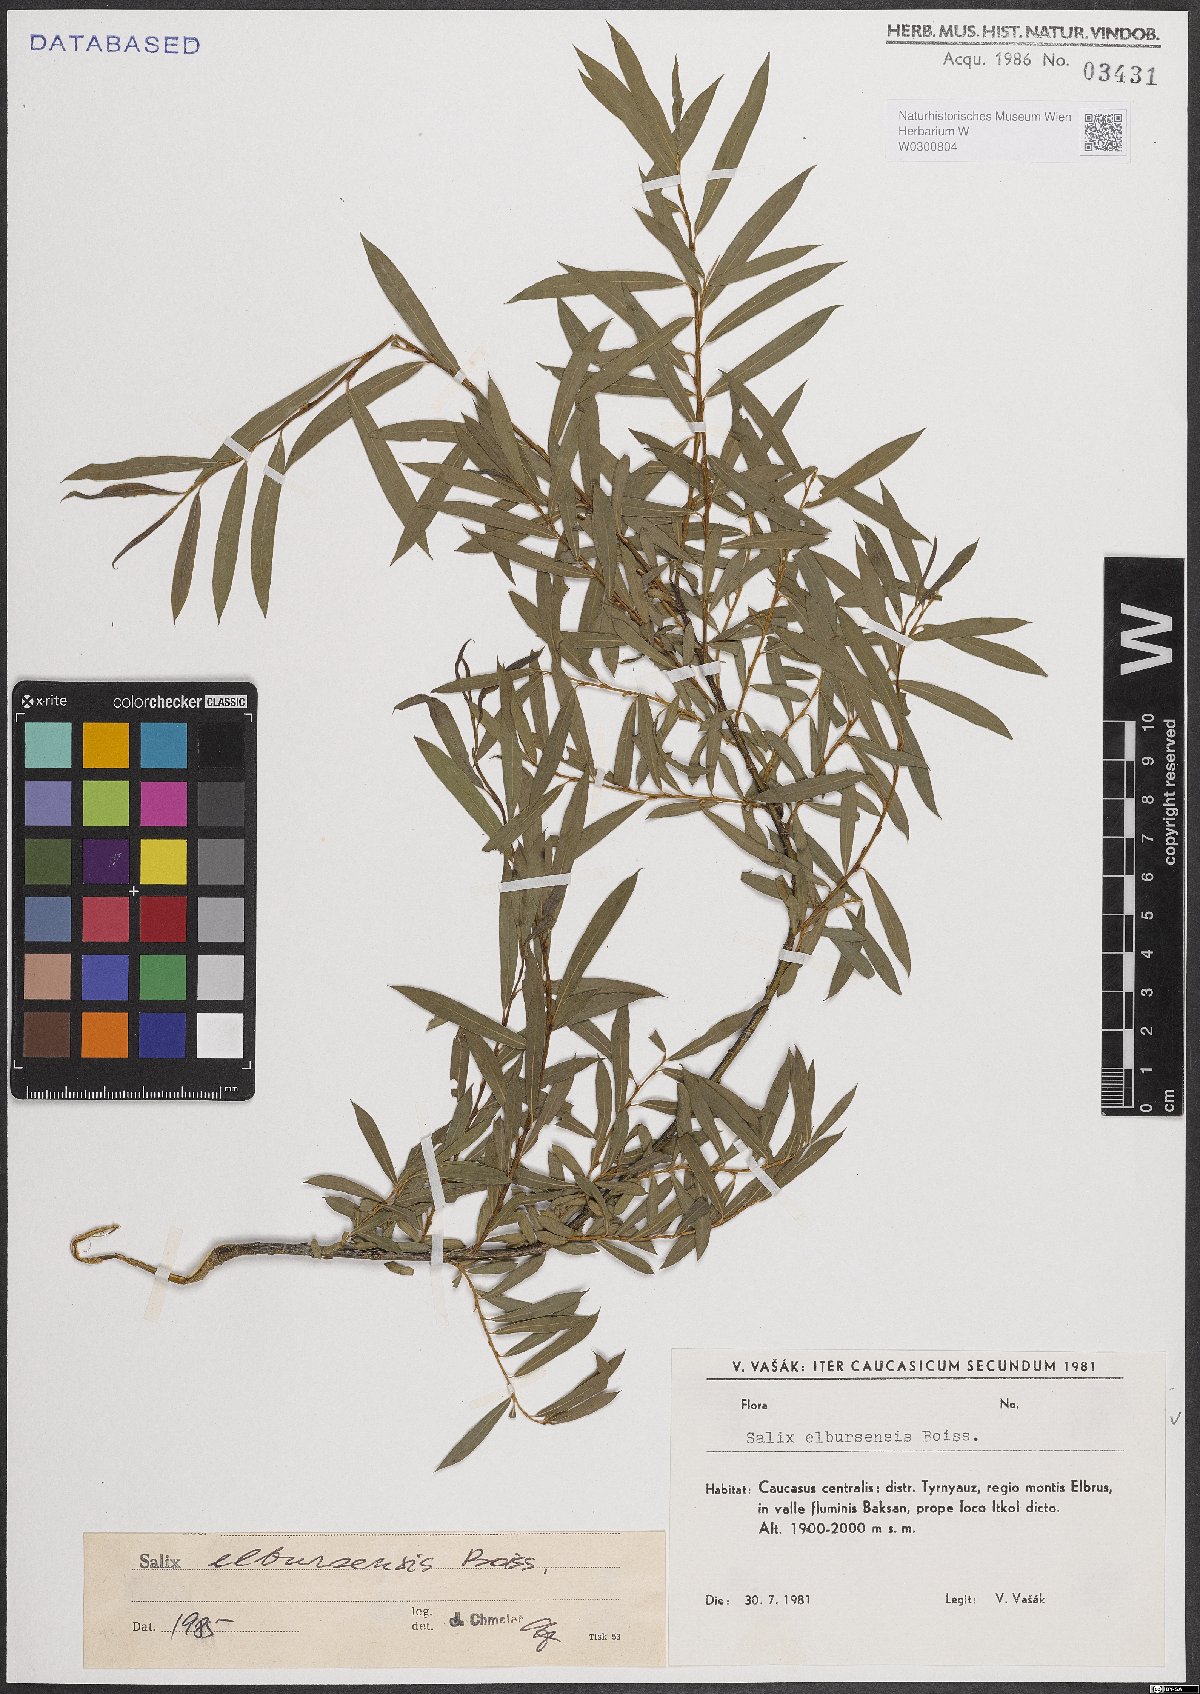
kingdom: Plantae
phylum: Tracheophyta
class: Magnoliopsida
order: Malpighiales
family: Salicaceae
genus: Salix
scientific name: Salix elbursensis
